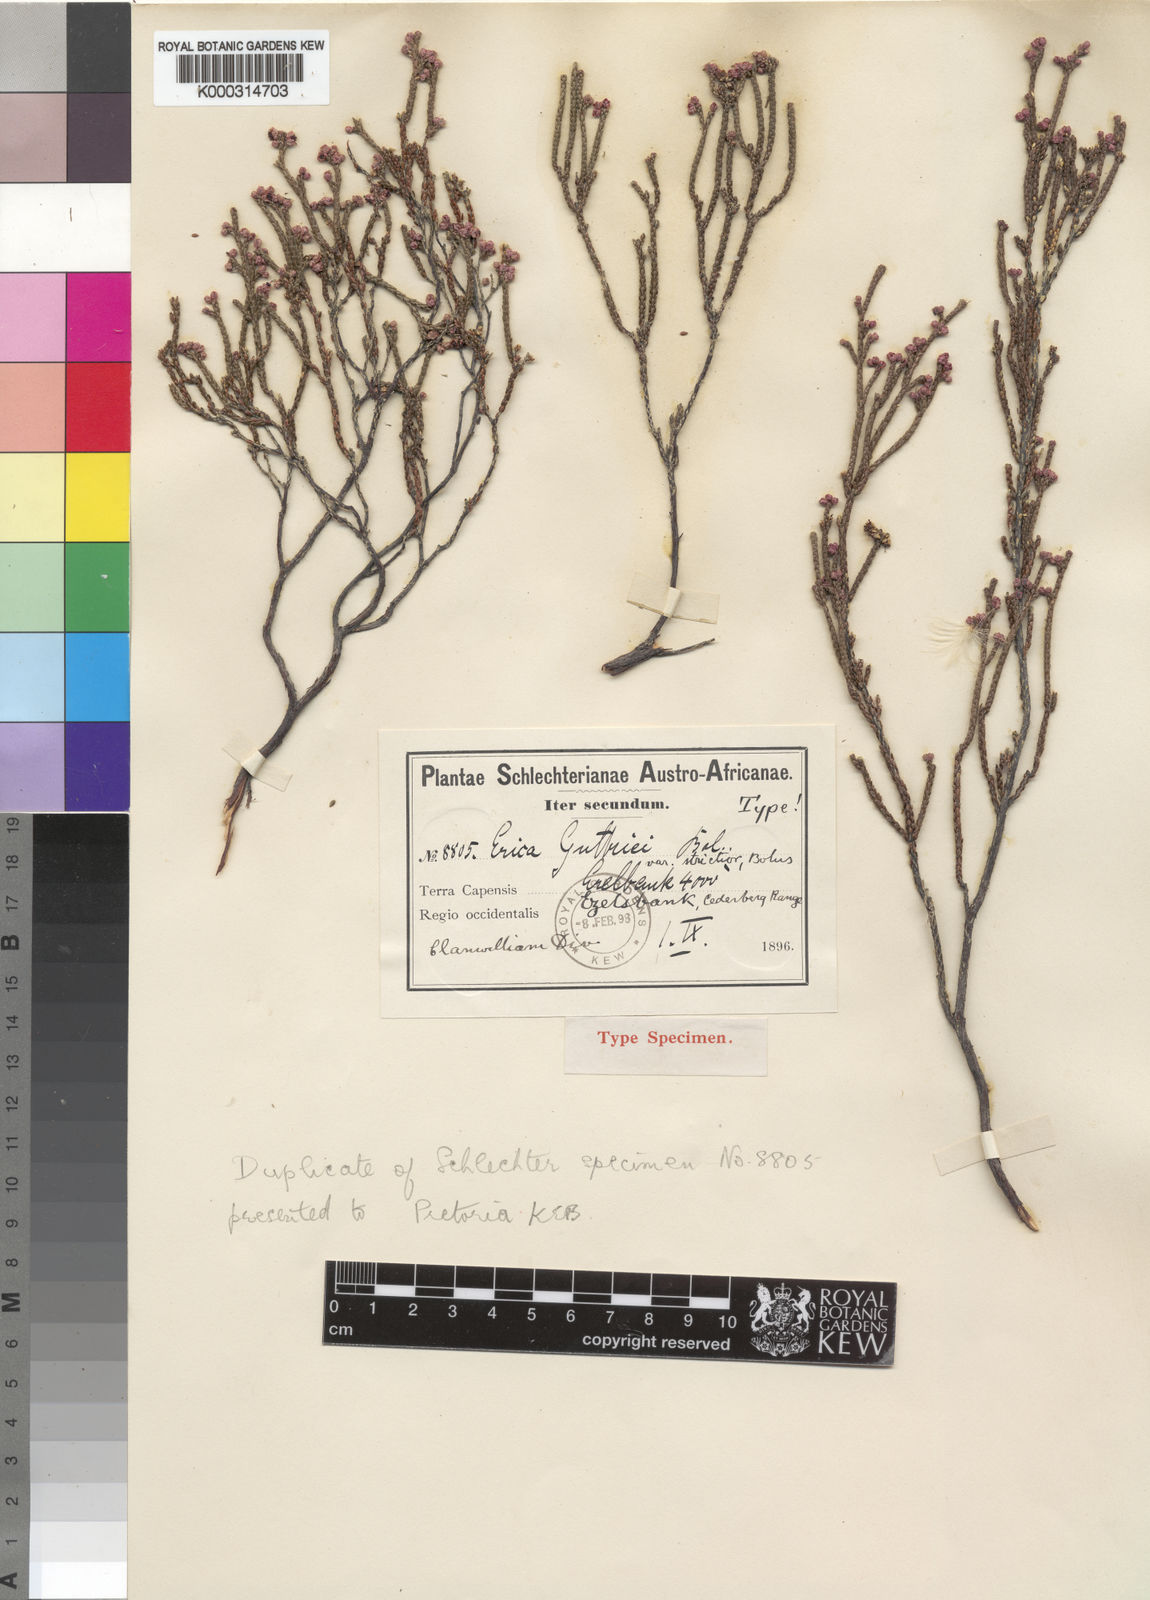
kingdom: Plantae
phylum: Tracheophyta
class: Magnoliopsida
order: Ericales
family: Ericaceae
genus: Erica
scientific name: Erica guthriei
